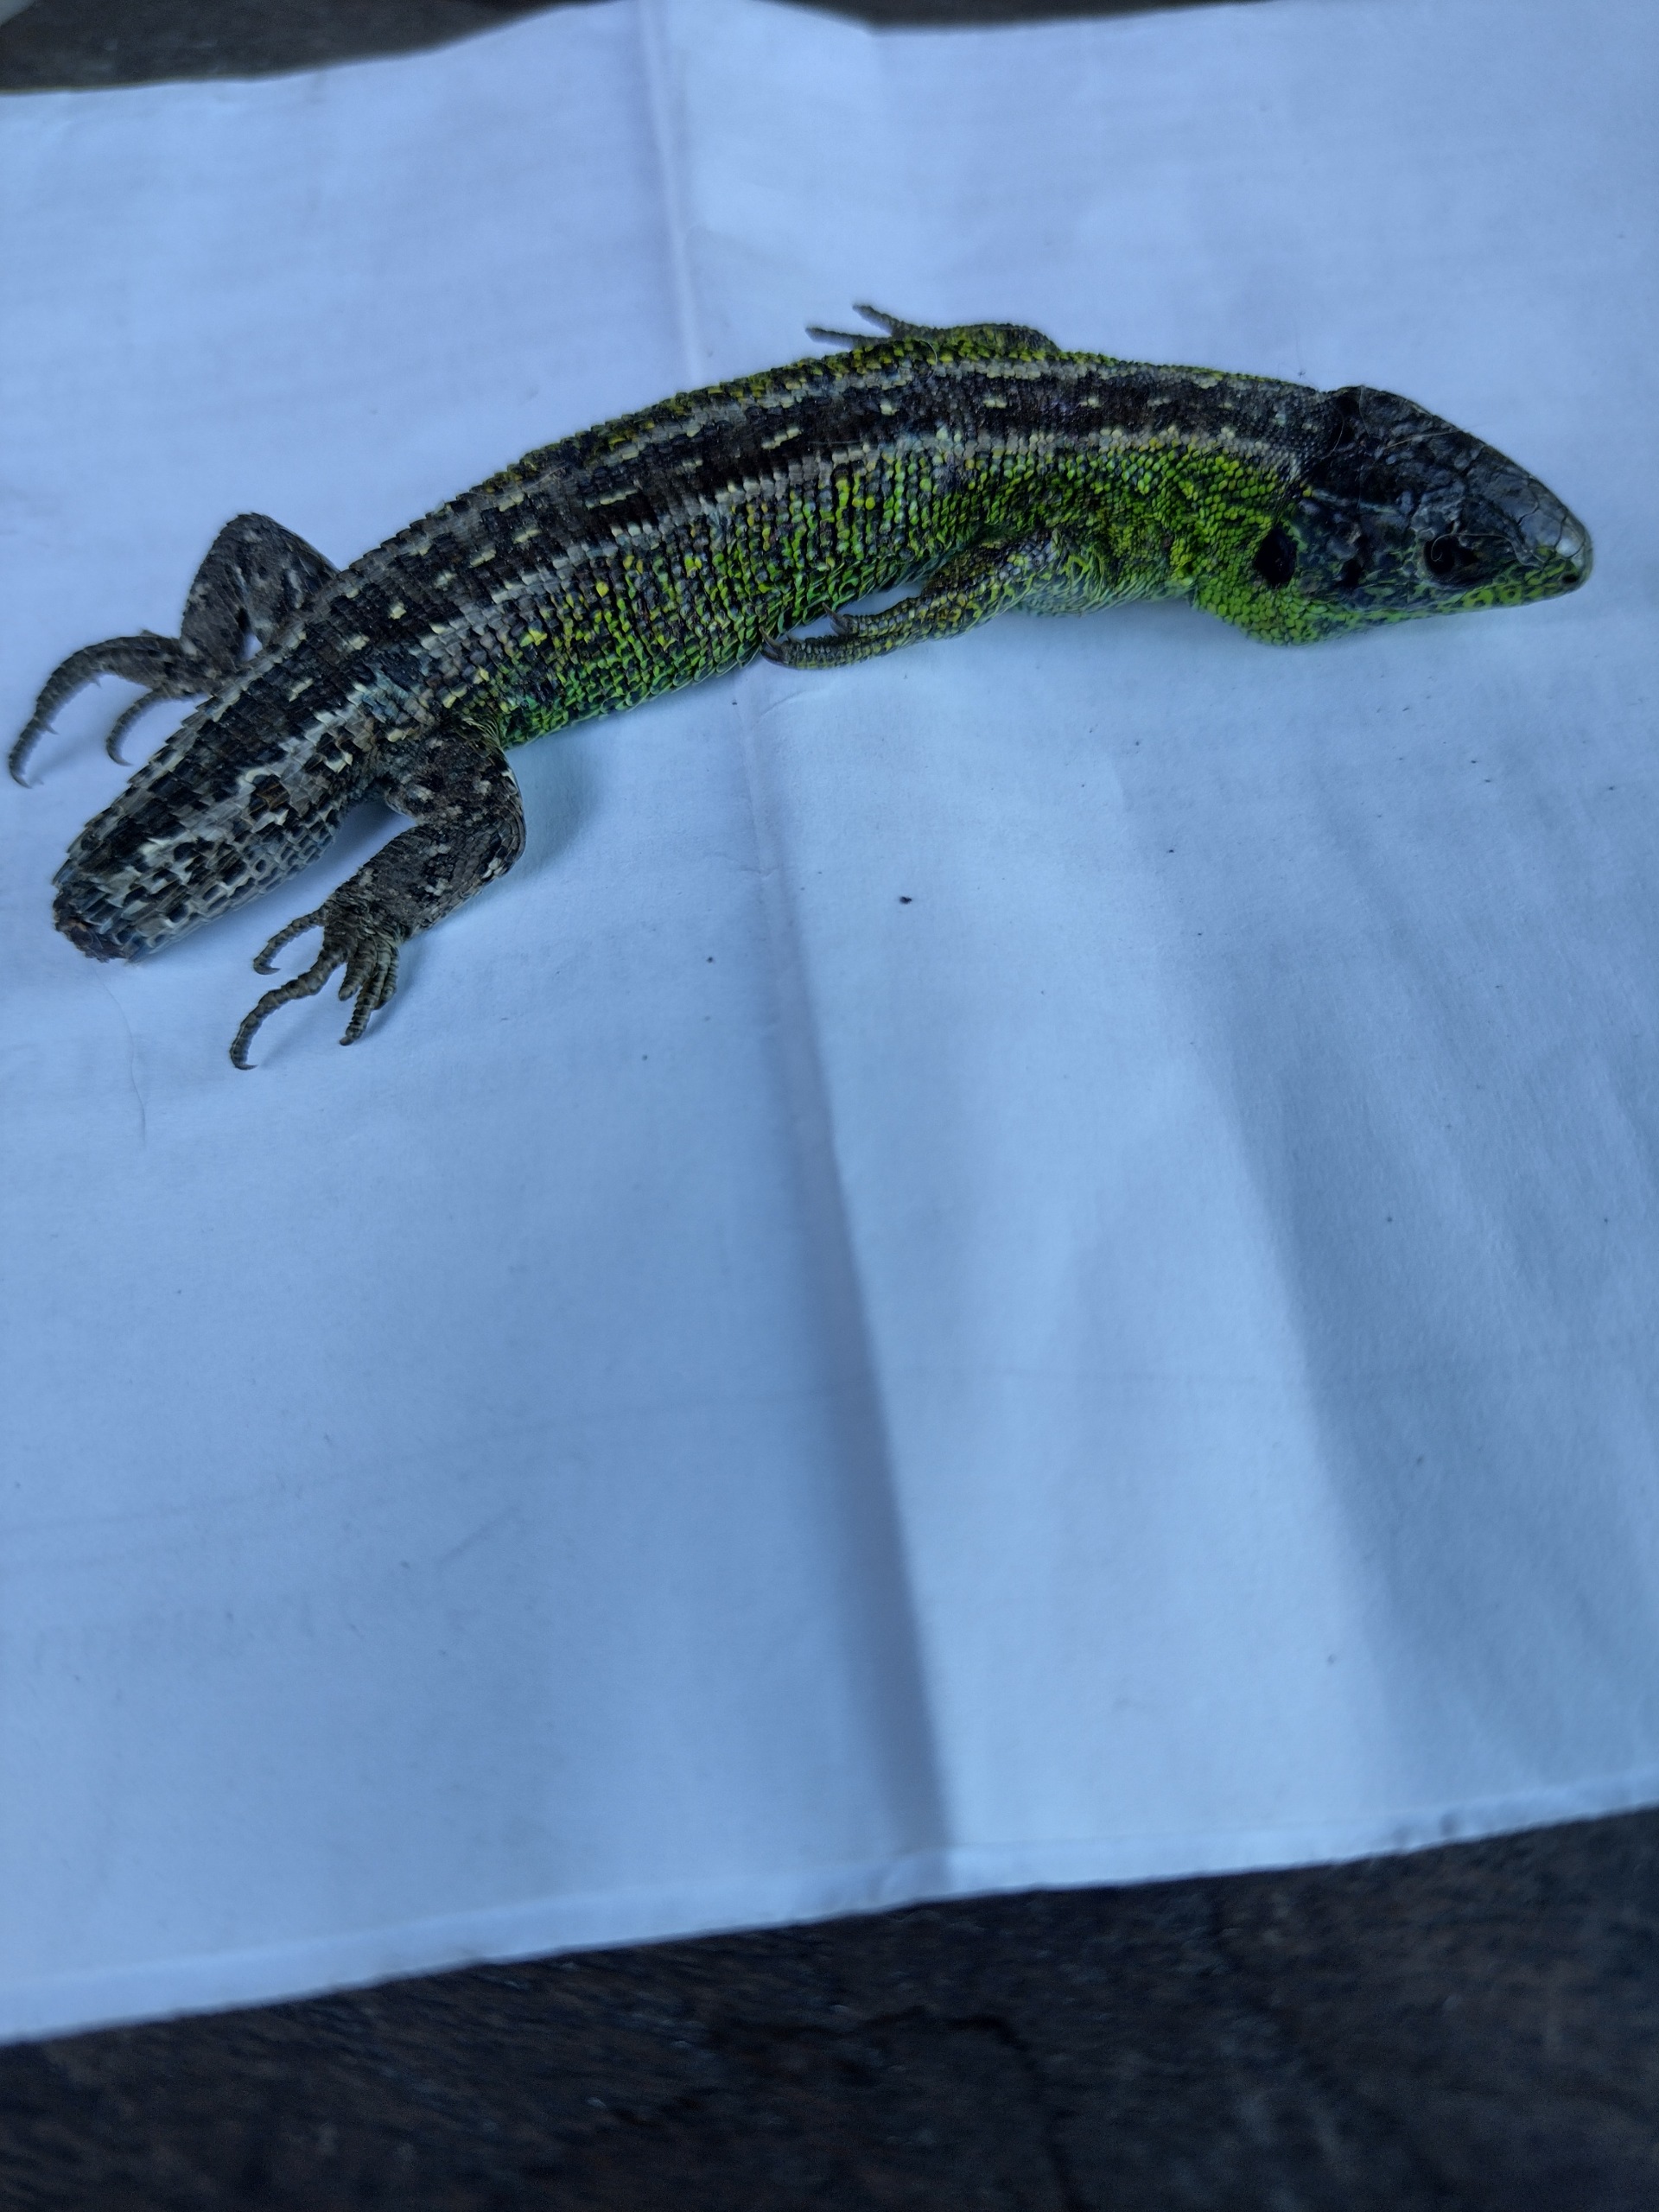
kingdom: Animalia
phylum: Chordata
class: Squamata
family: Lacertidae
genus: Lacerta
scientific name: Lacerta agilis
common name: Markfirben
